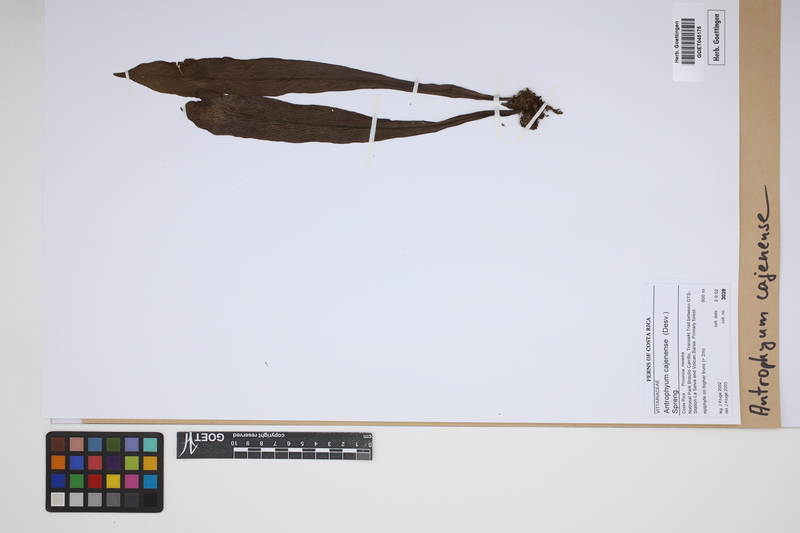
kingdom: Plantae
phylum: Tracheophyta
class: Polypodiopsida
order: Polypodiales
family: Pteridaceae
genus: Polytaenium
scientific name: Polytaenium cajenense
